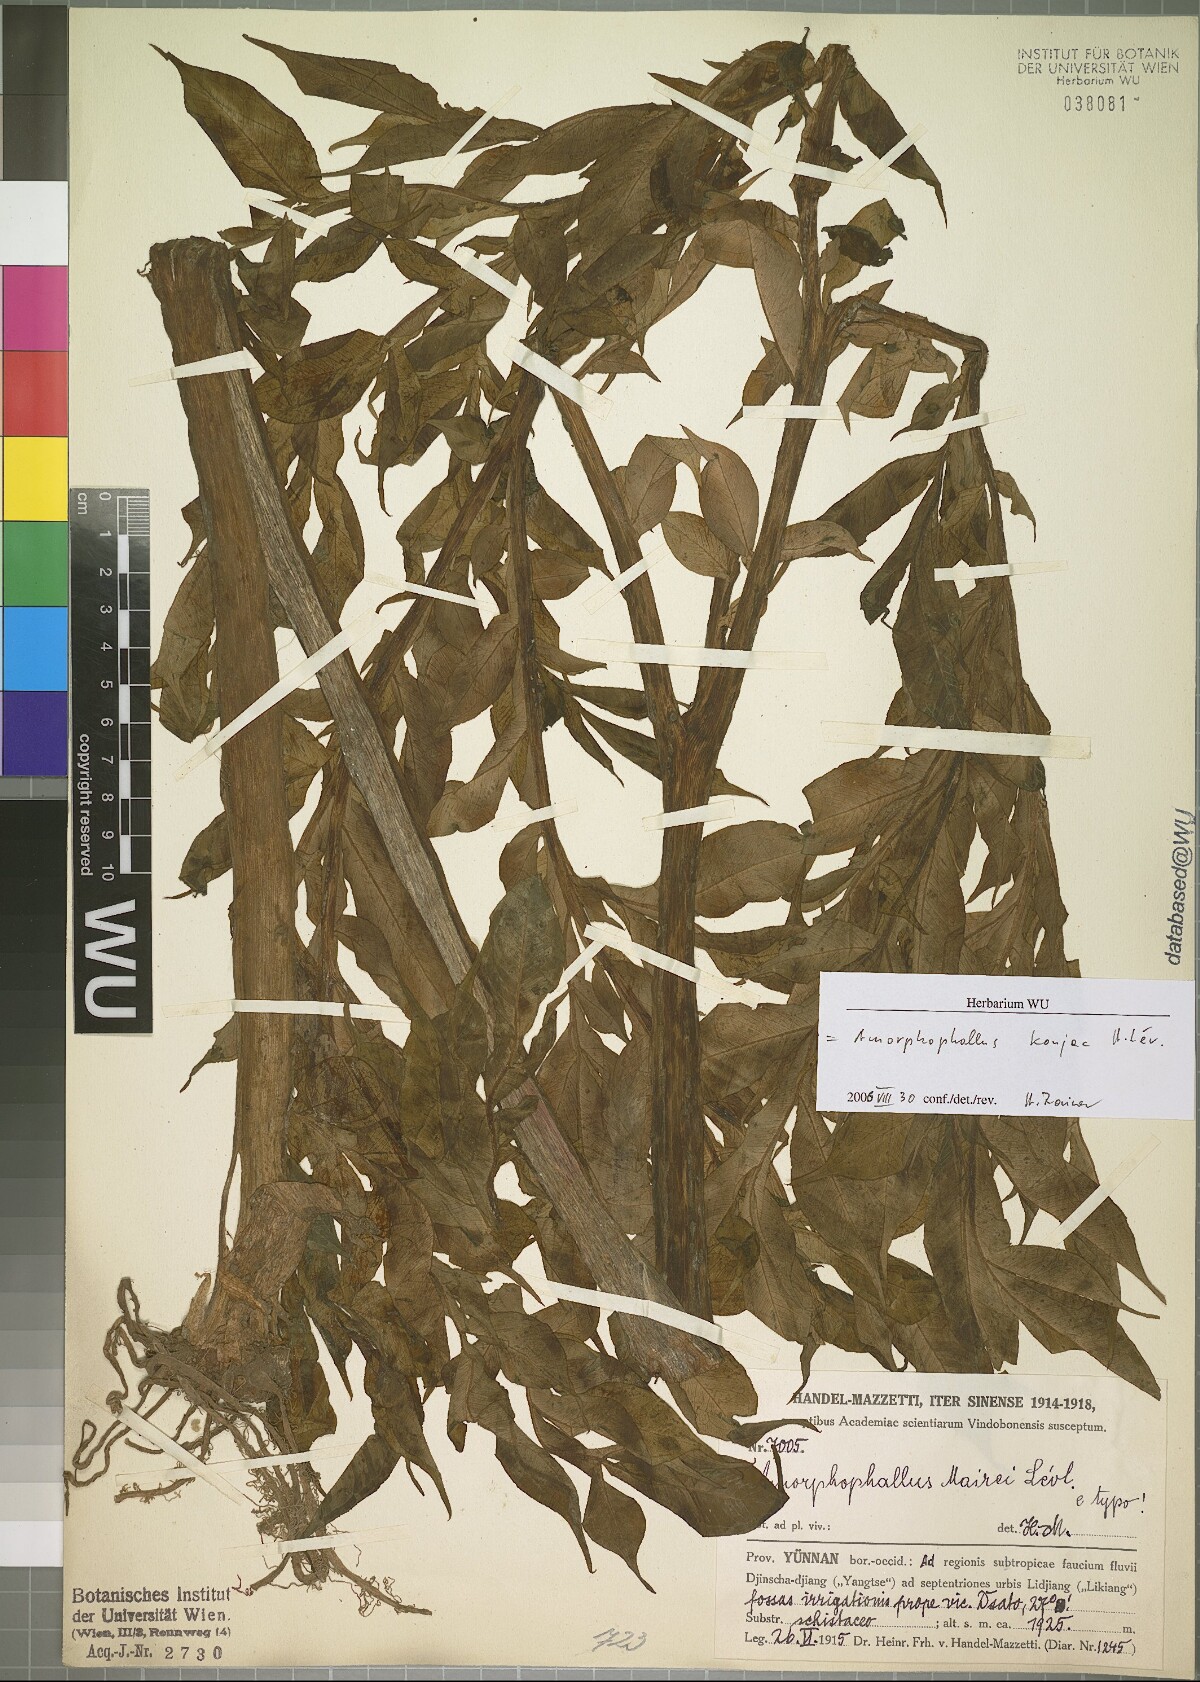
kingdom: Plantae
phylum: Tracheophyta
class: Liliopsida
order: Alismatales
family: Araceae
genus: Amorphophallus
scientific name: Amorphophallus konjac
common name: Umbrella arum
